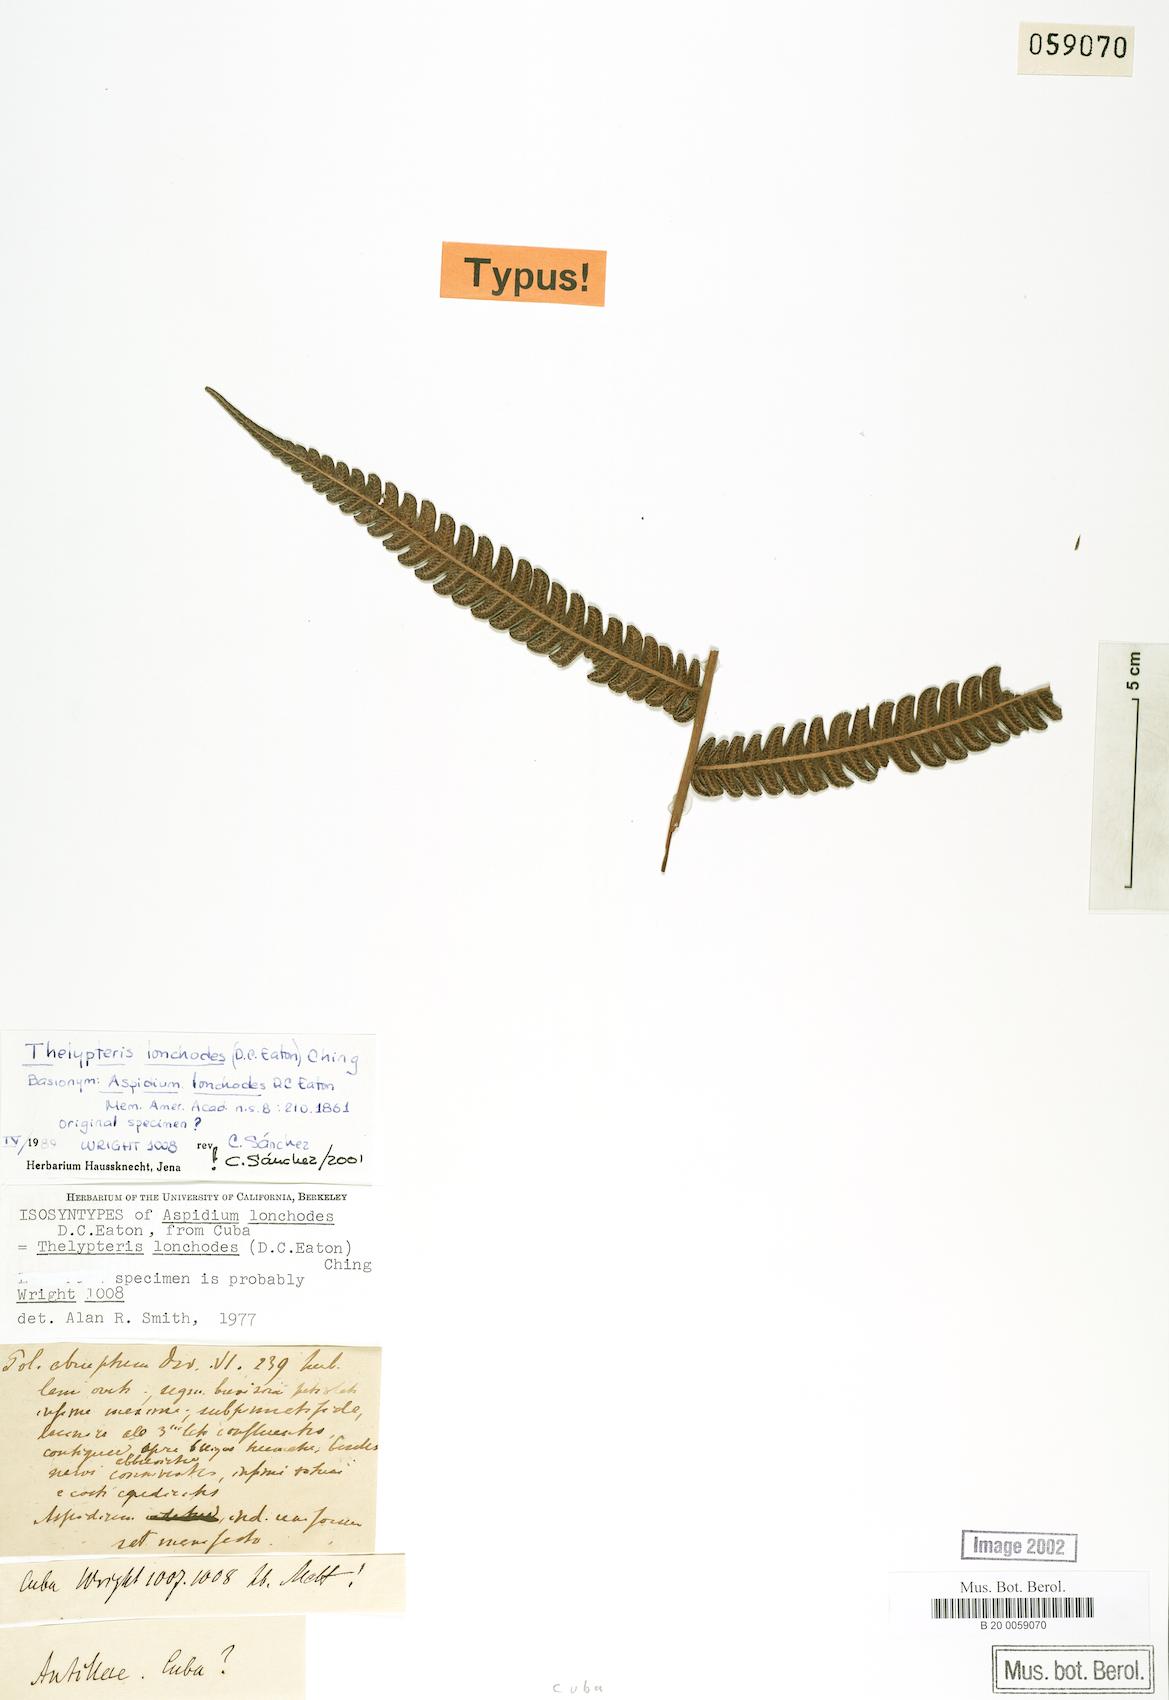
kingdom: Plantae
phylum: Tracheophyta
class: Polypodiopsida
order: Polypodiales
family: Thelypteridaceae
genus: Steiropteris
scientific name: Steiropteris lonchodes
